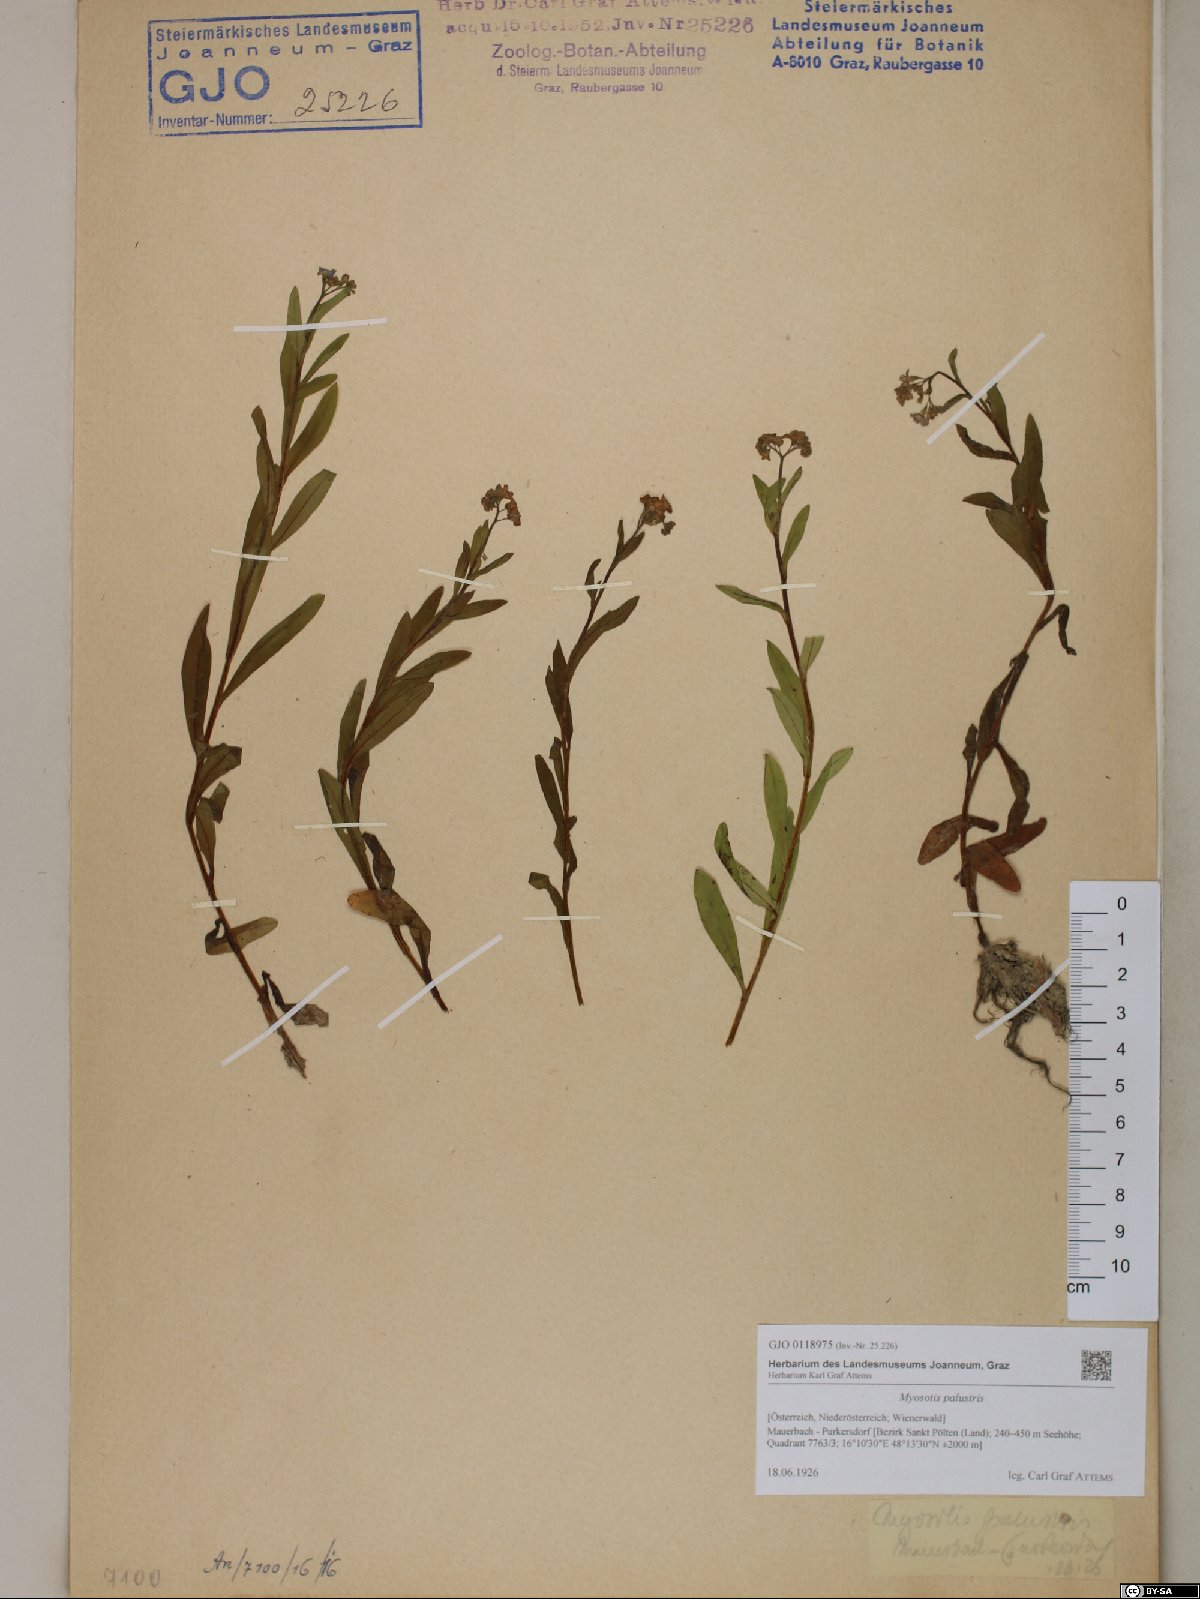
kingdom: Plantae
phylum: Tracheophyta
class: Magnoliopsida
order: Boraginales
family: Boraginaceae
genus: Myosotis
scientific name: Myosotis scorpioides
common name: Water forget-me-not
